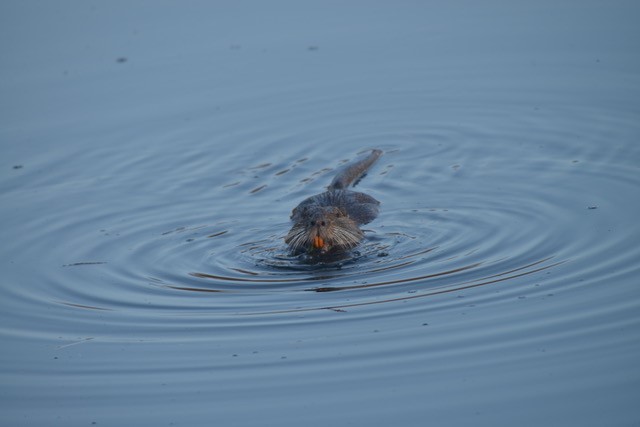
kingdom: Animalia
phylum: Chordata
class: Mammalia
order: Rodentia
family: Myocastoridae
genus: Myocastor
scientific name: Myocastor coypus
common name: Coypu
